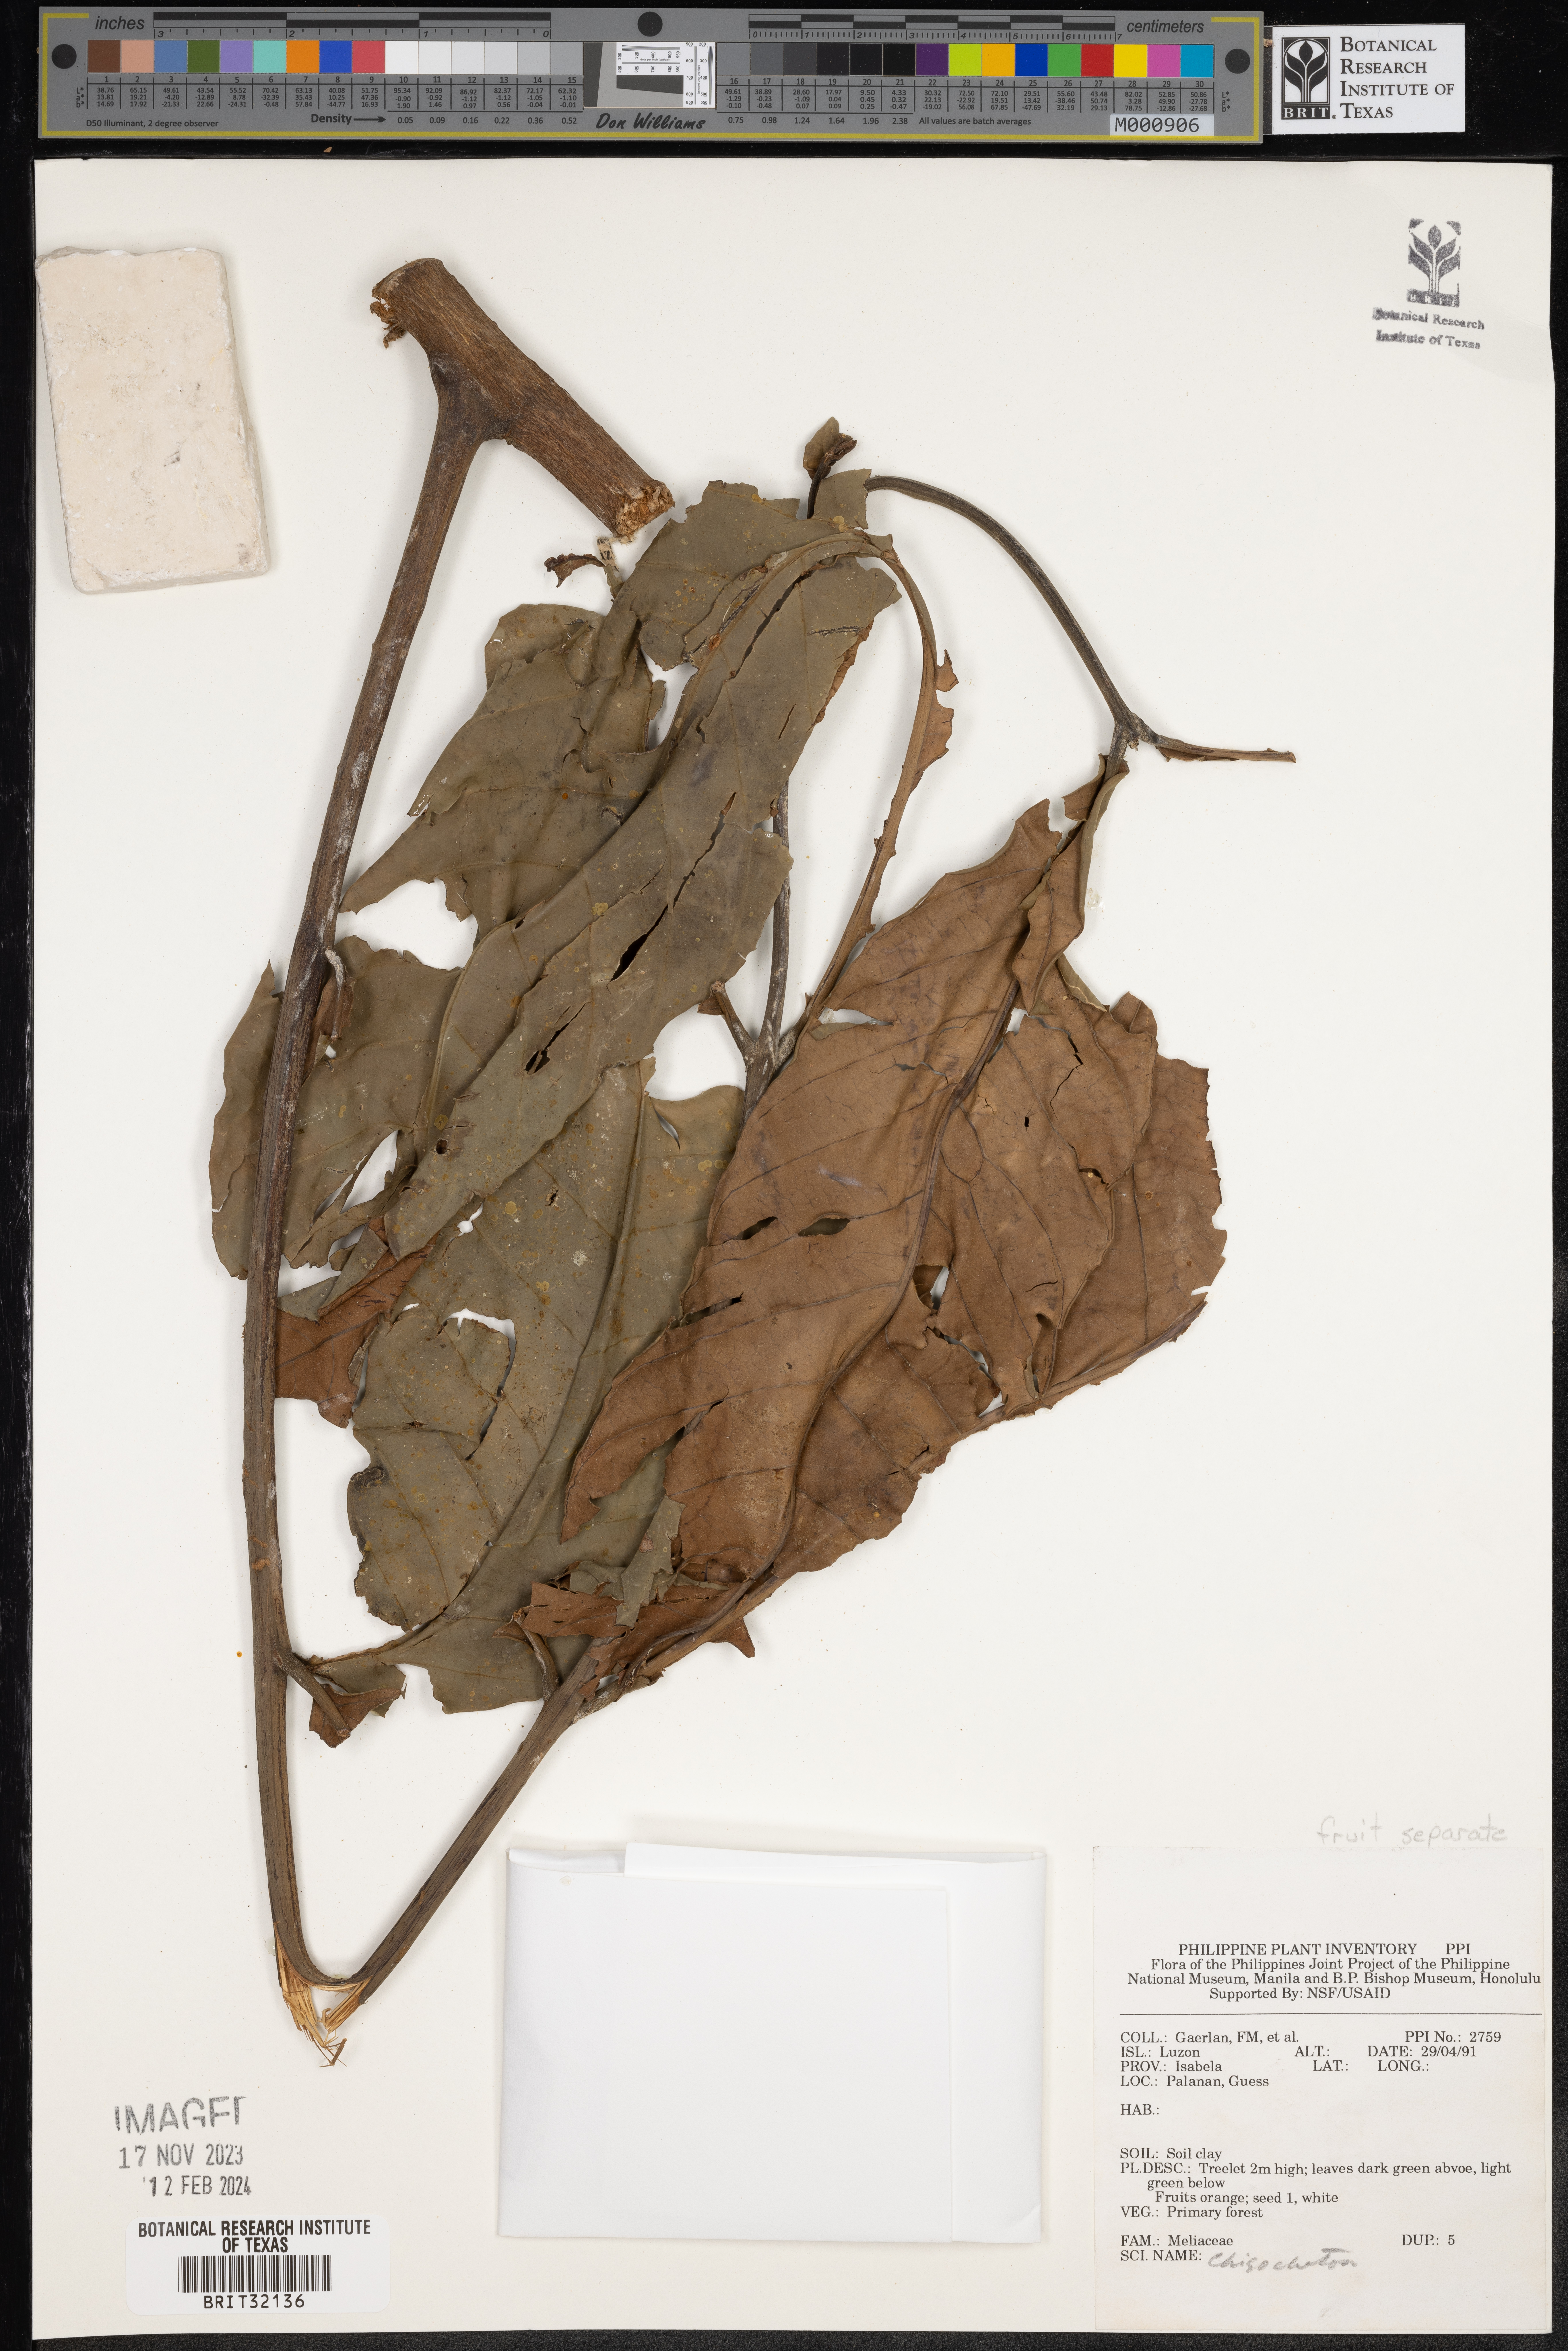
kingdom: Plantae
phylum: Tracheophyta
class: Magnoliopsida
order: Sapindales
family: Meliaceae
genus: Chisocheton
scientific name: Chisocheton
